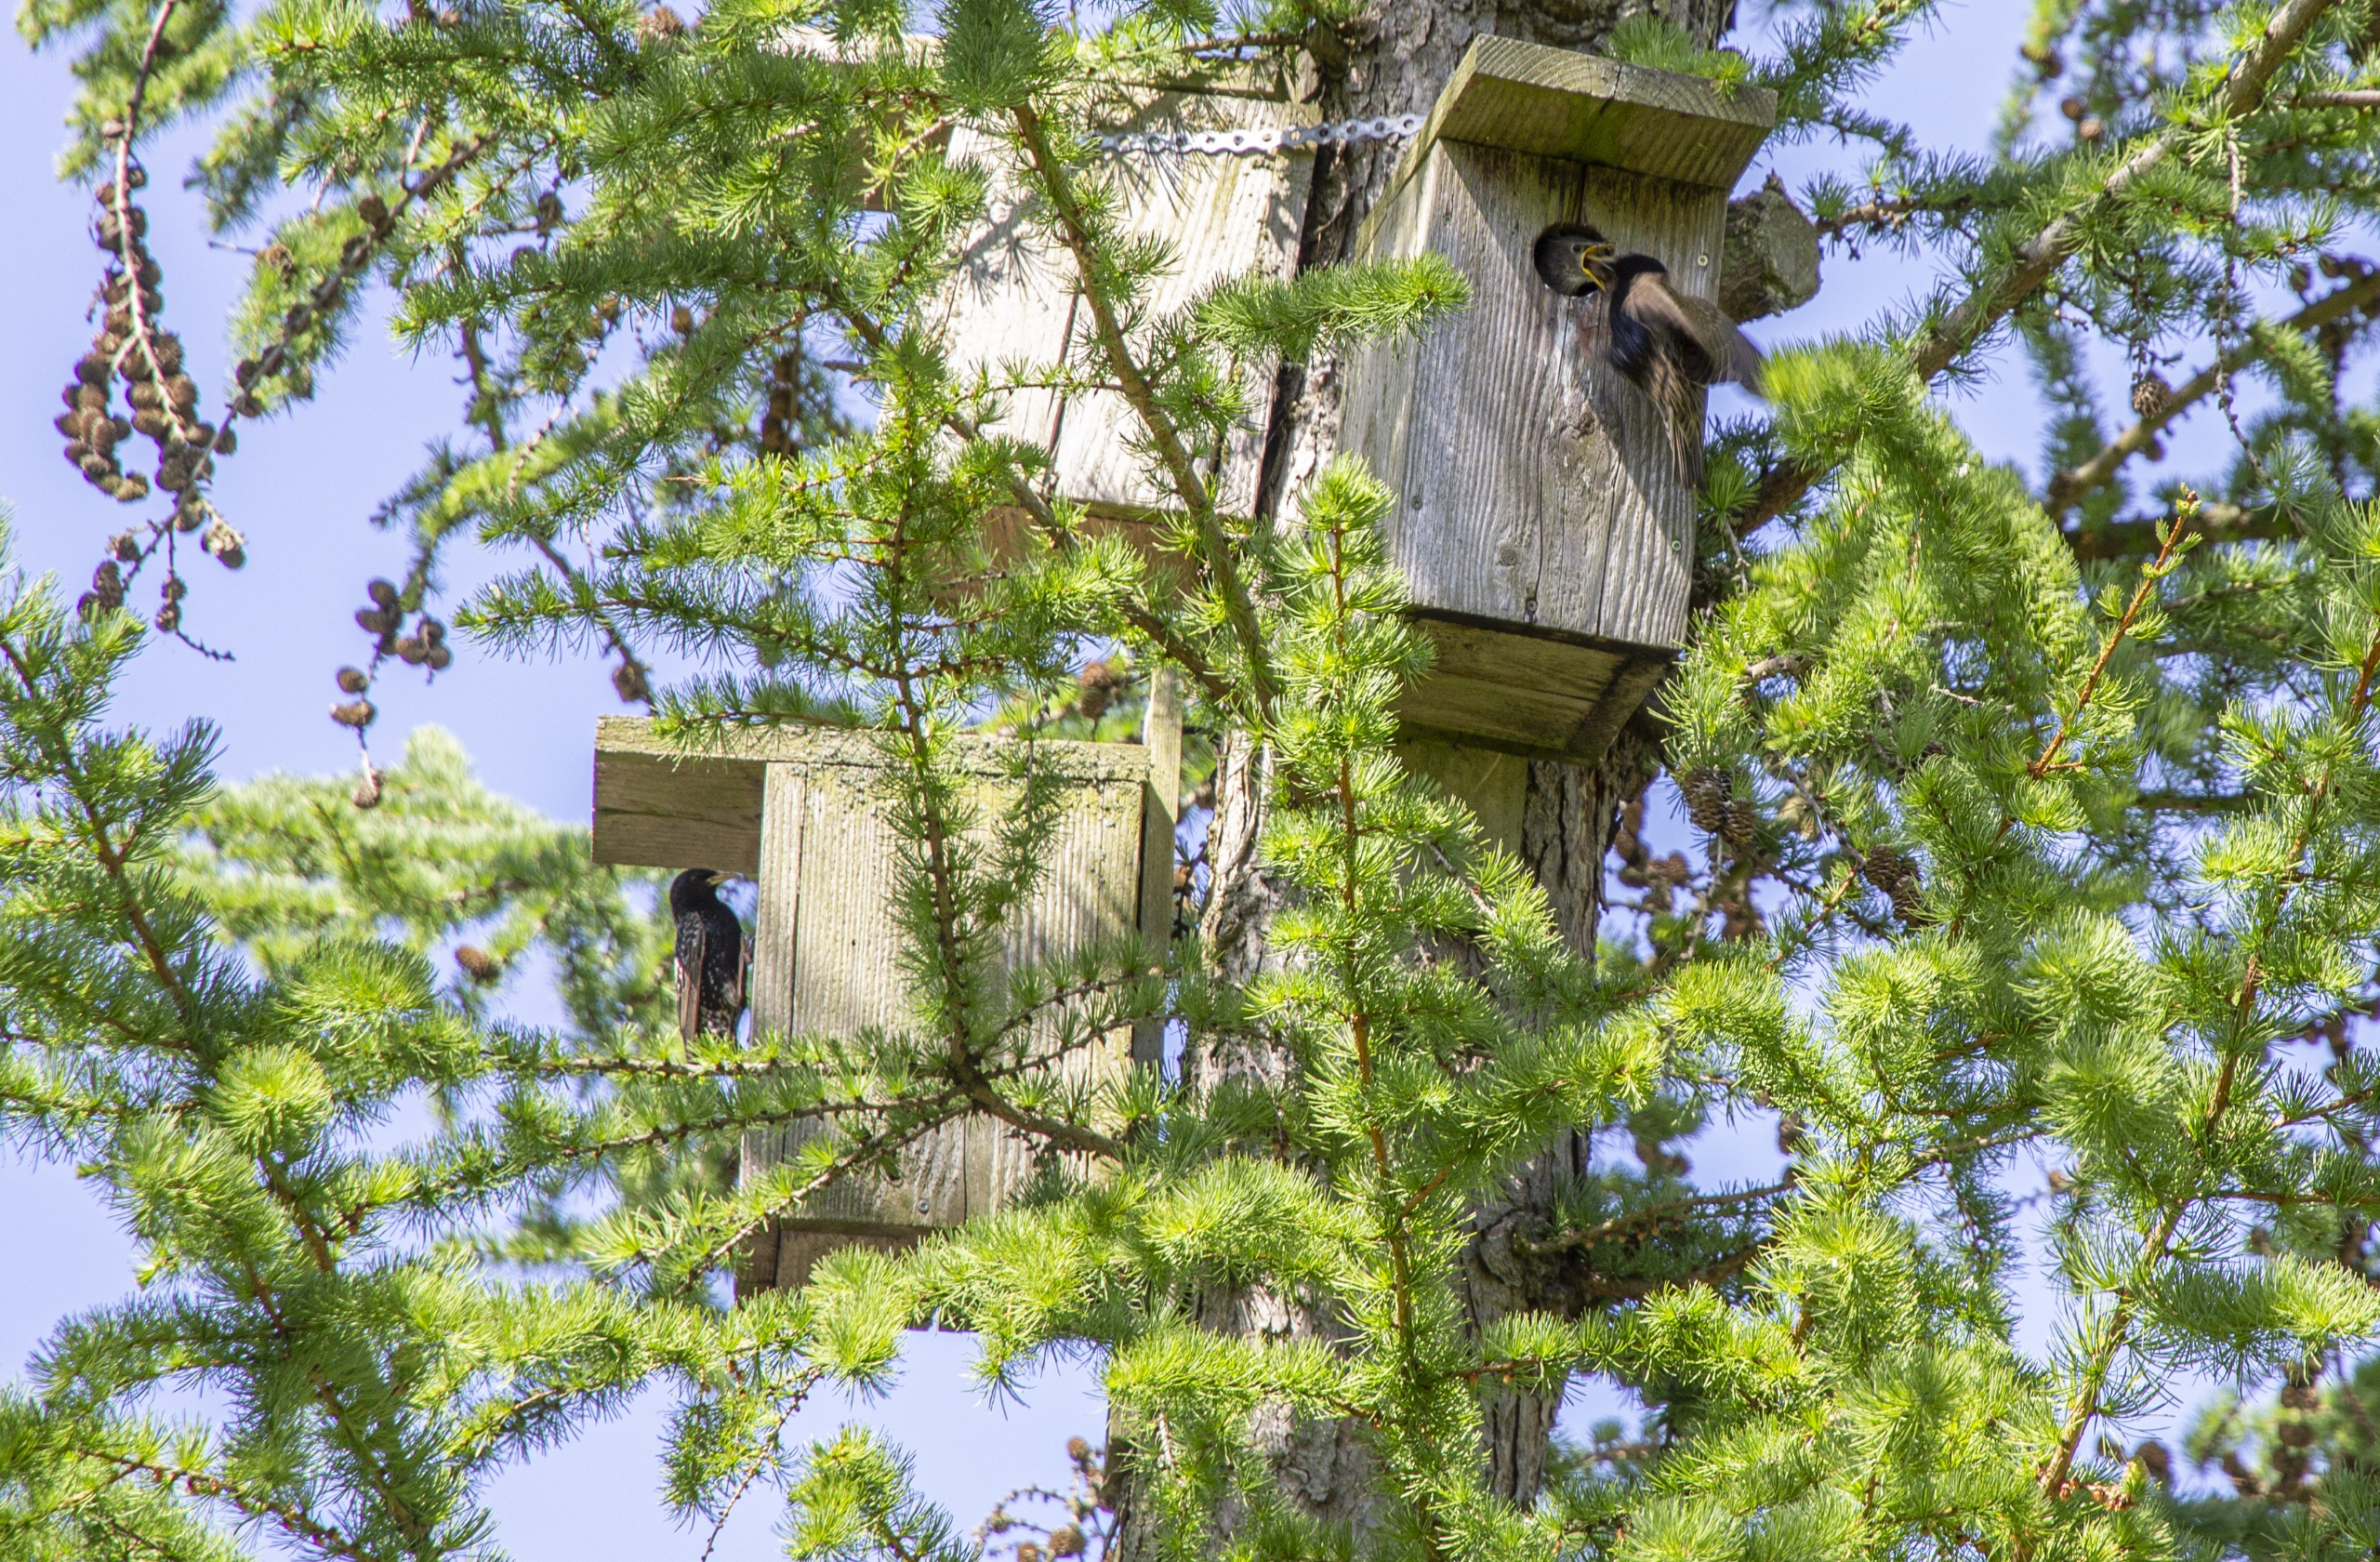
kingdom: Animalia
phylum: Chordata
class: Aves
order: Passeriformes
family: Sturnidae
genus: Sturnus
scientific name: Sturnus vulgaris
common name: Stær
